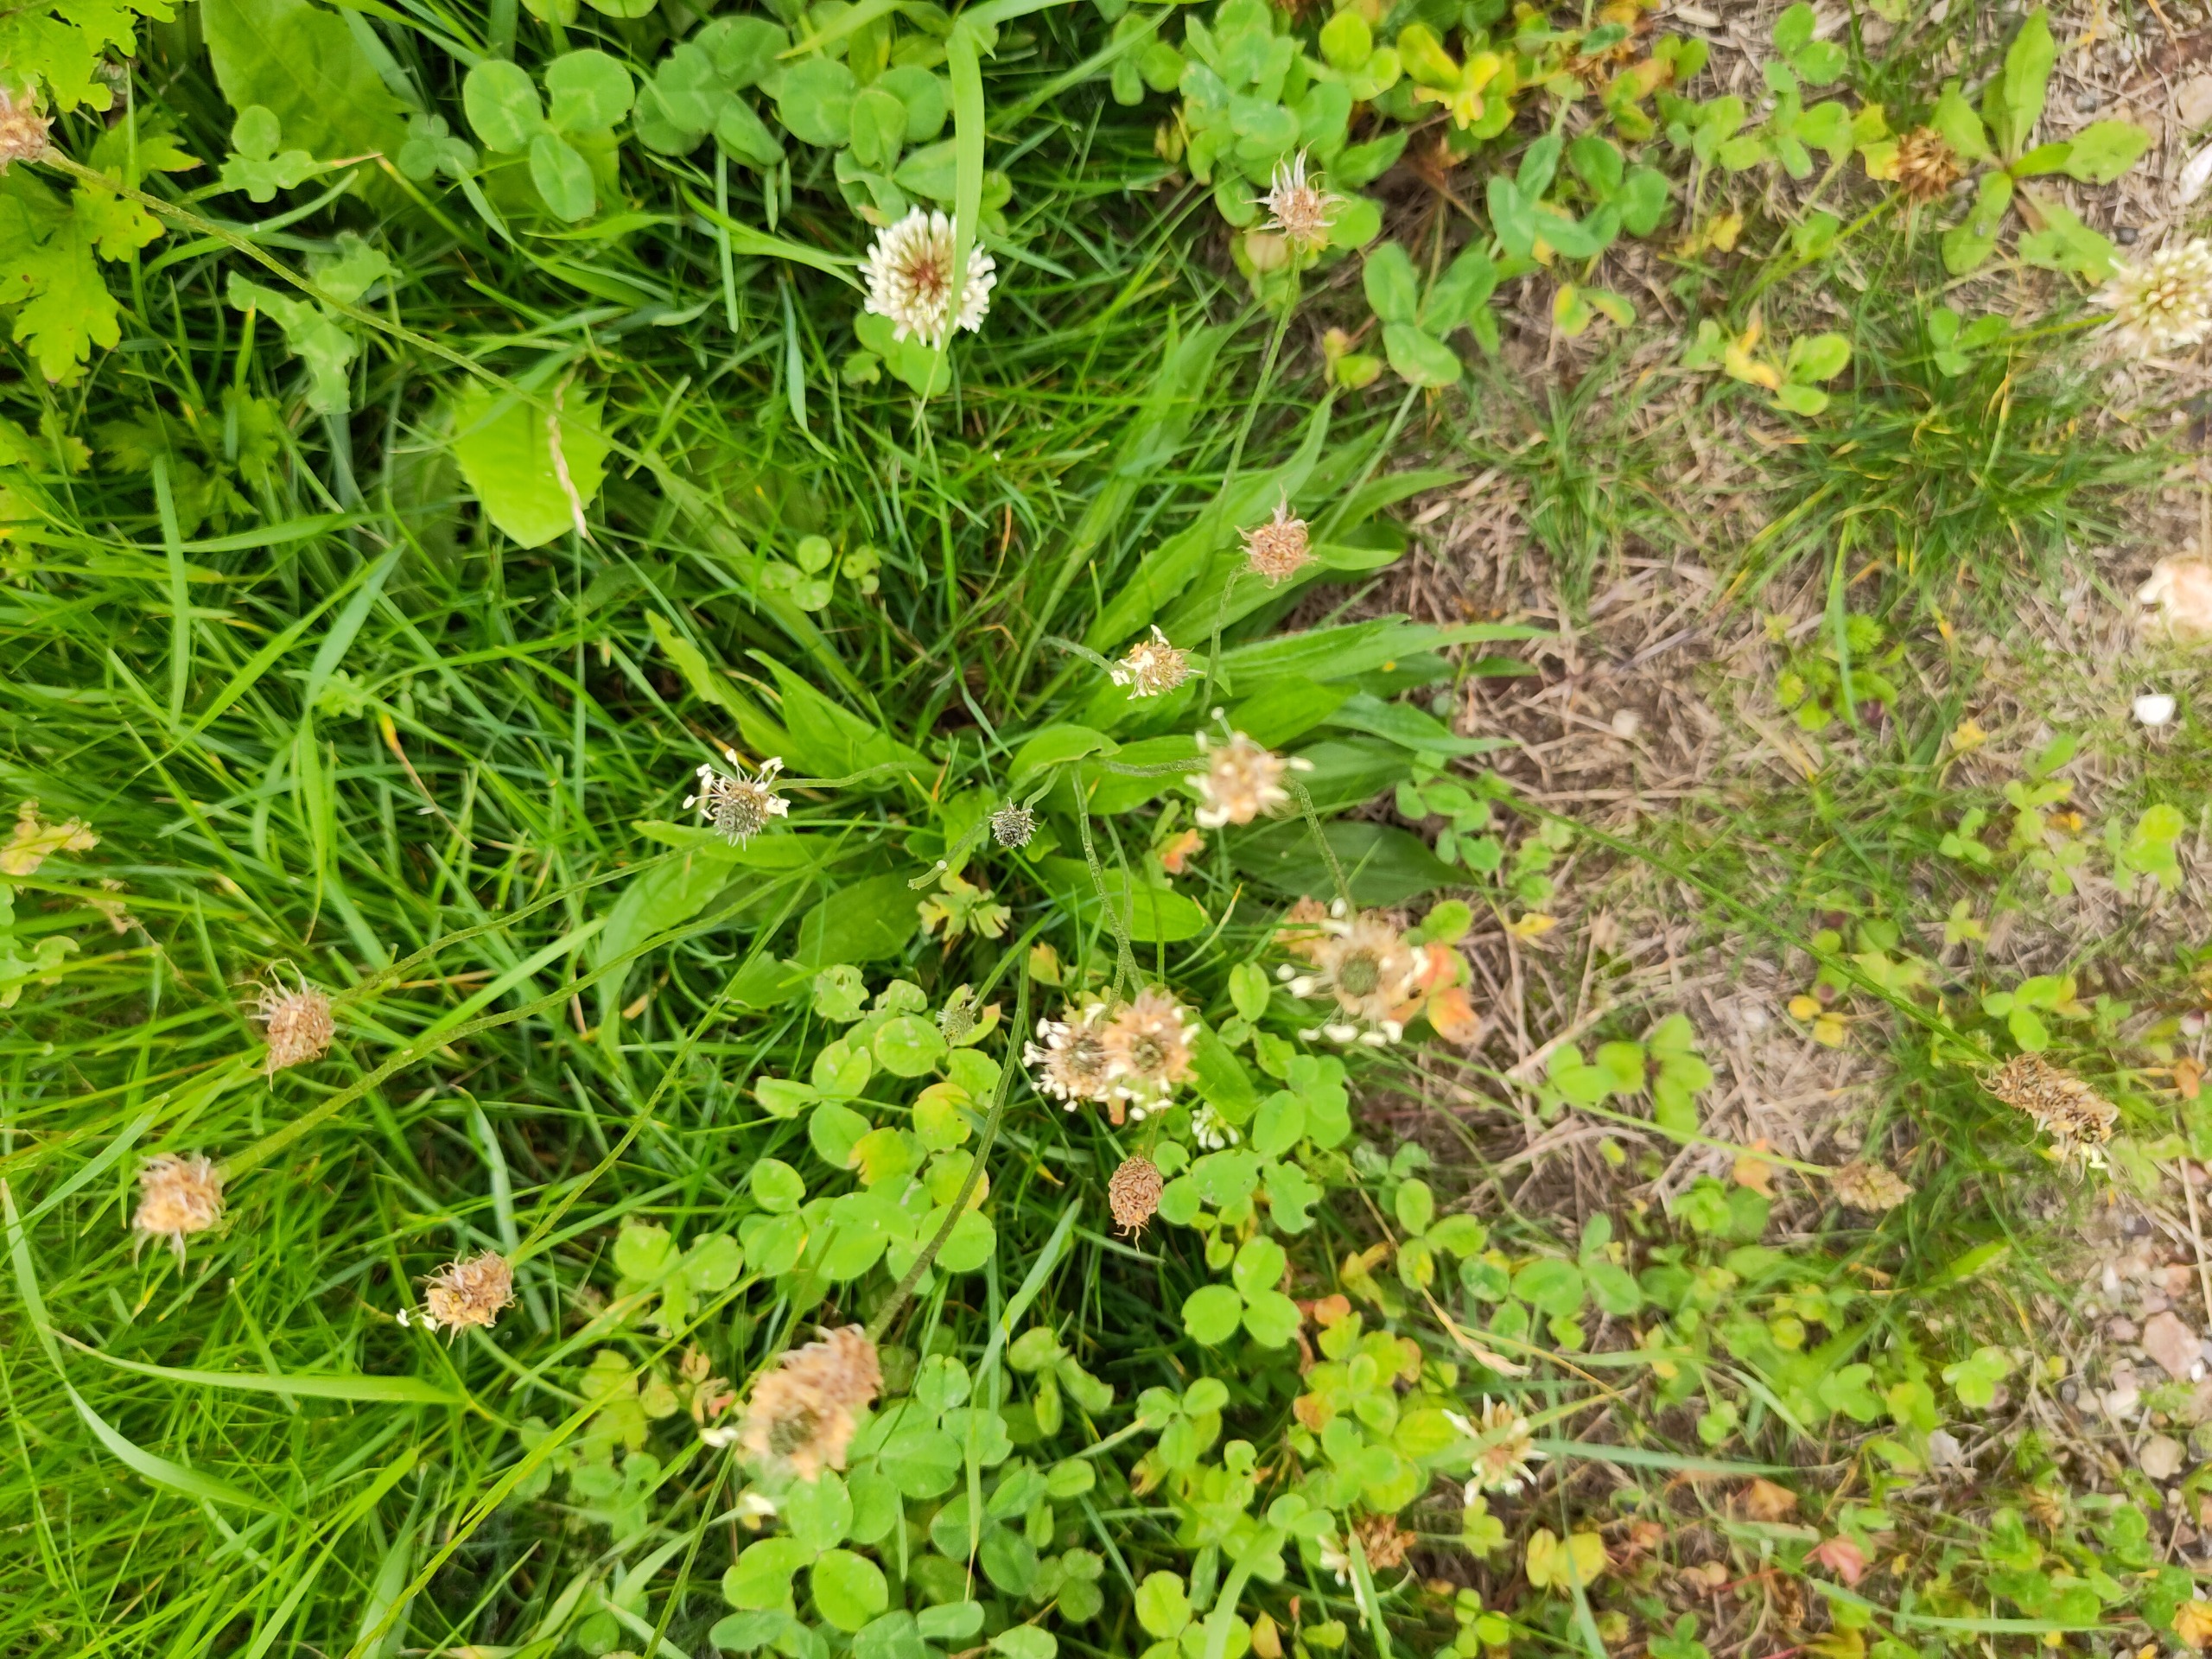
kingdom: Plantae
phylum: Tracheophyta
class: Magnoliopsida
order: Lamiales
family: Plantaginaceae
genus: Plantago
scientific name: Plantago lanceolata
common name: Lancet-vejbred
